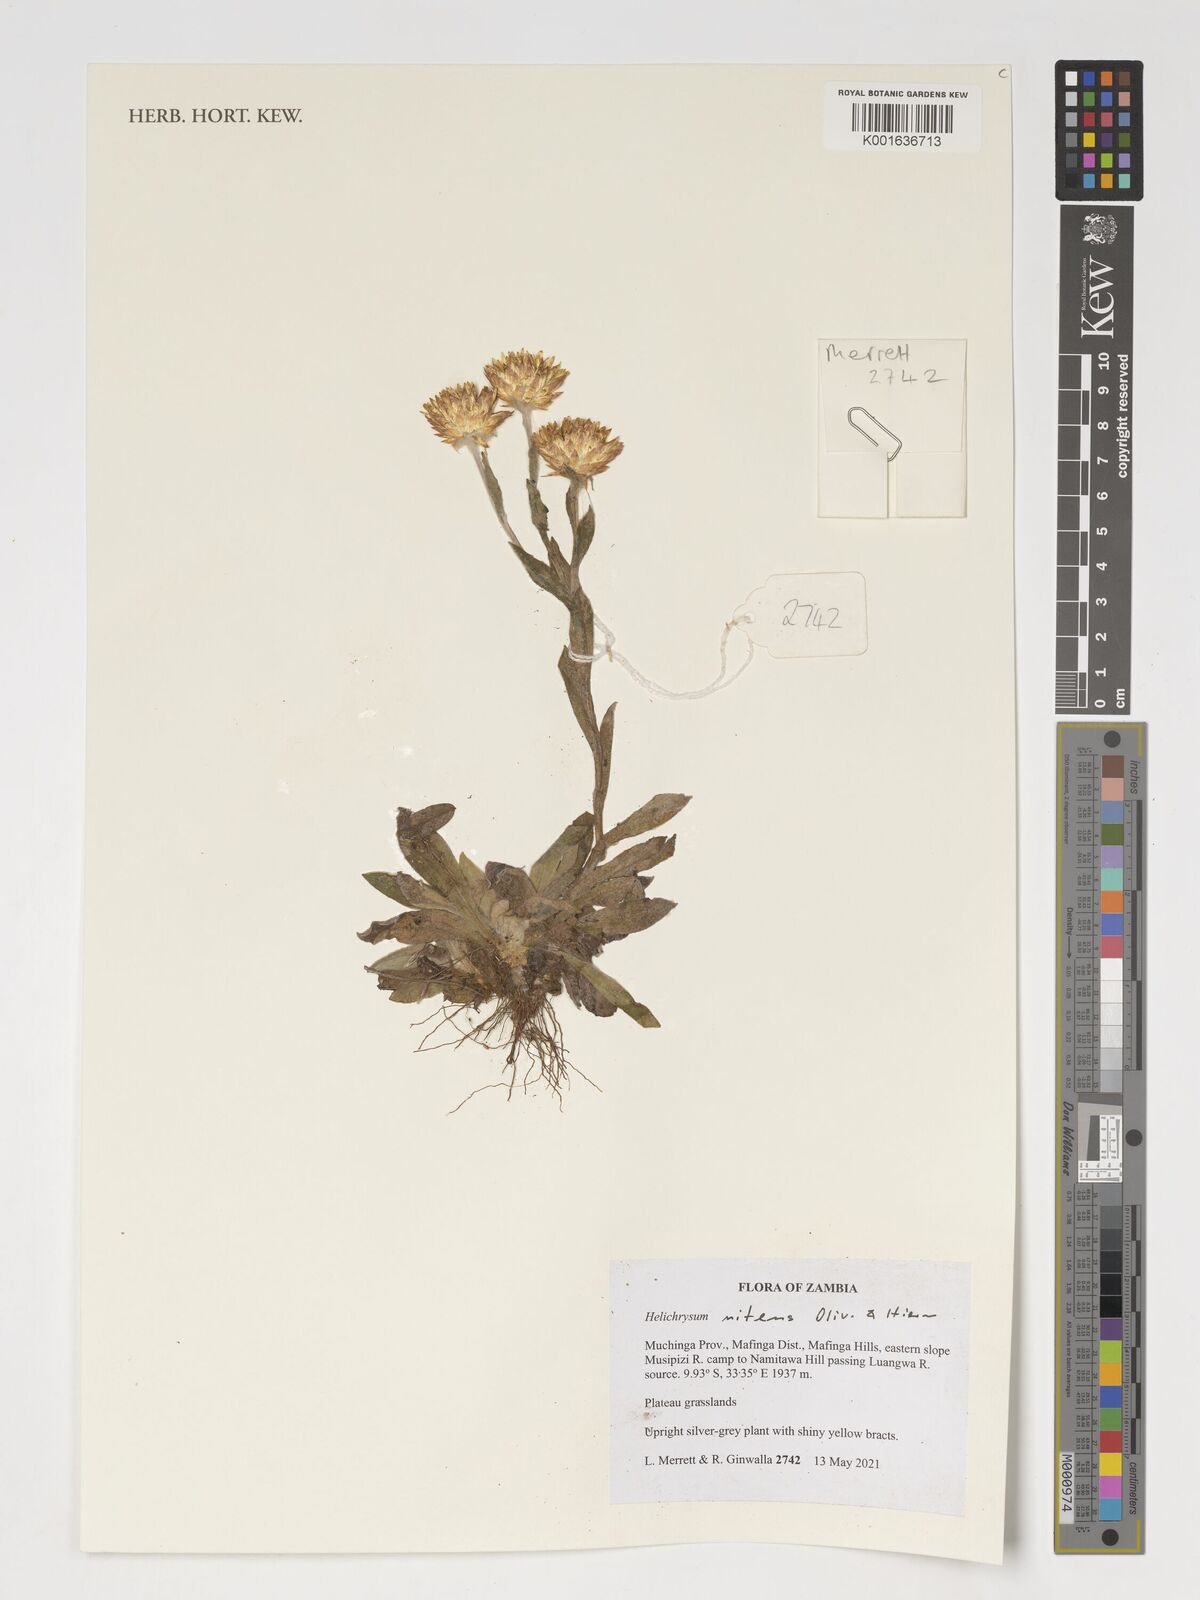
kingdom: Plantae
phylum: Tracheophyta
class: Magnoliopsida
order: Asterales
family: Asteraceae
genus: Helichrysum
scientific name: Helichrysum nitens
